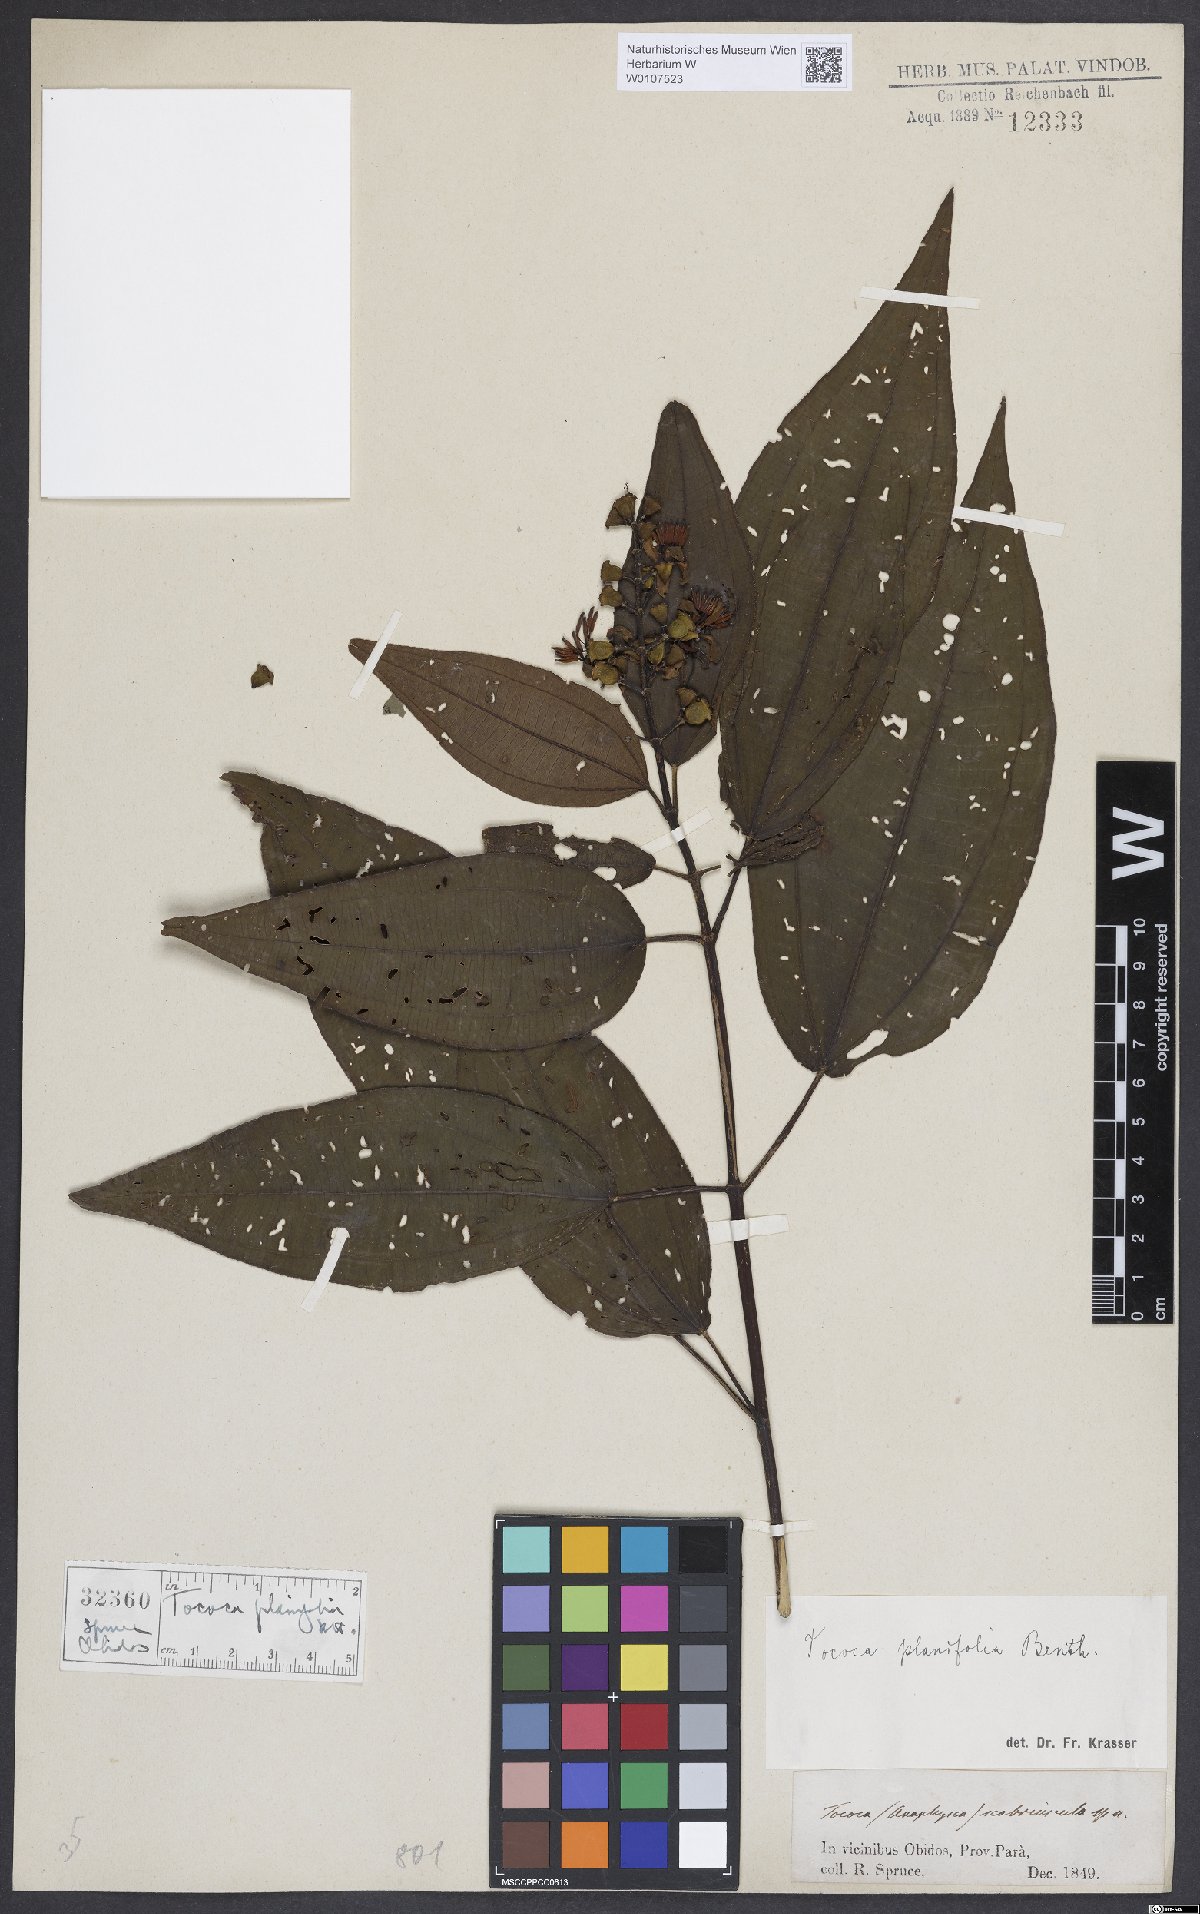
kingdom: Plantae
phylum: Tracheophyta
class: Magnoliopsida
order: Myrtales
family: Melastomataceae
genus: Miconia
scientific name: Miconia subciliata
